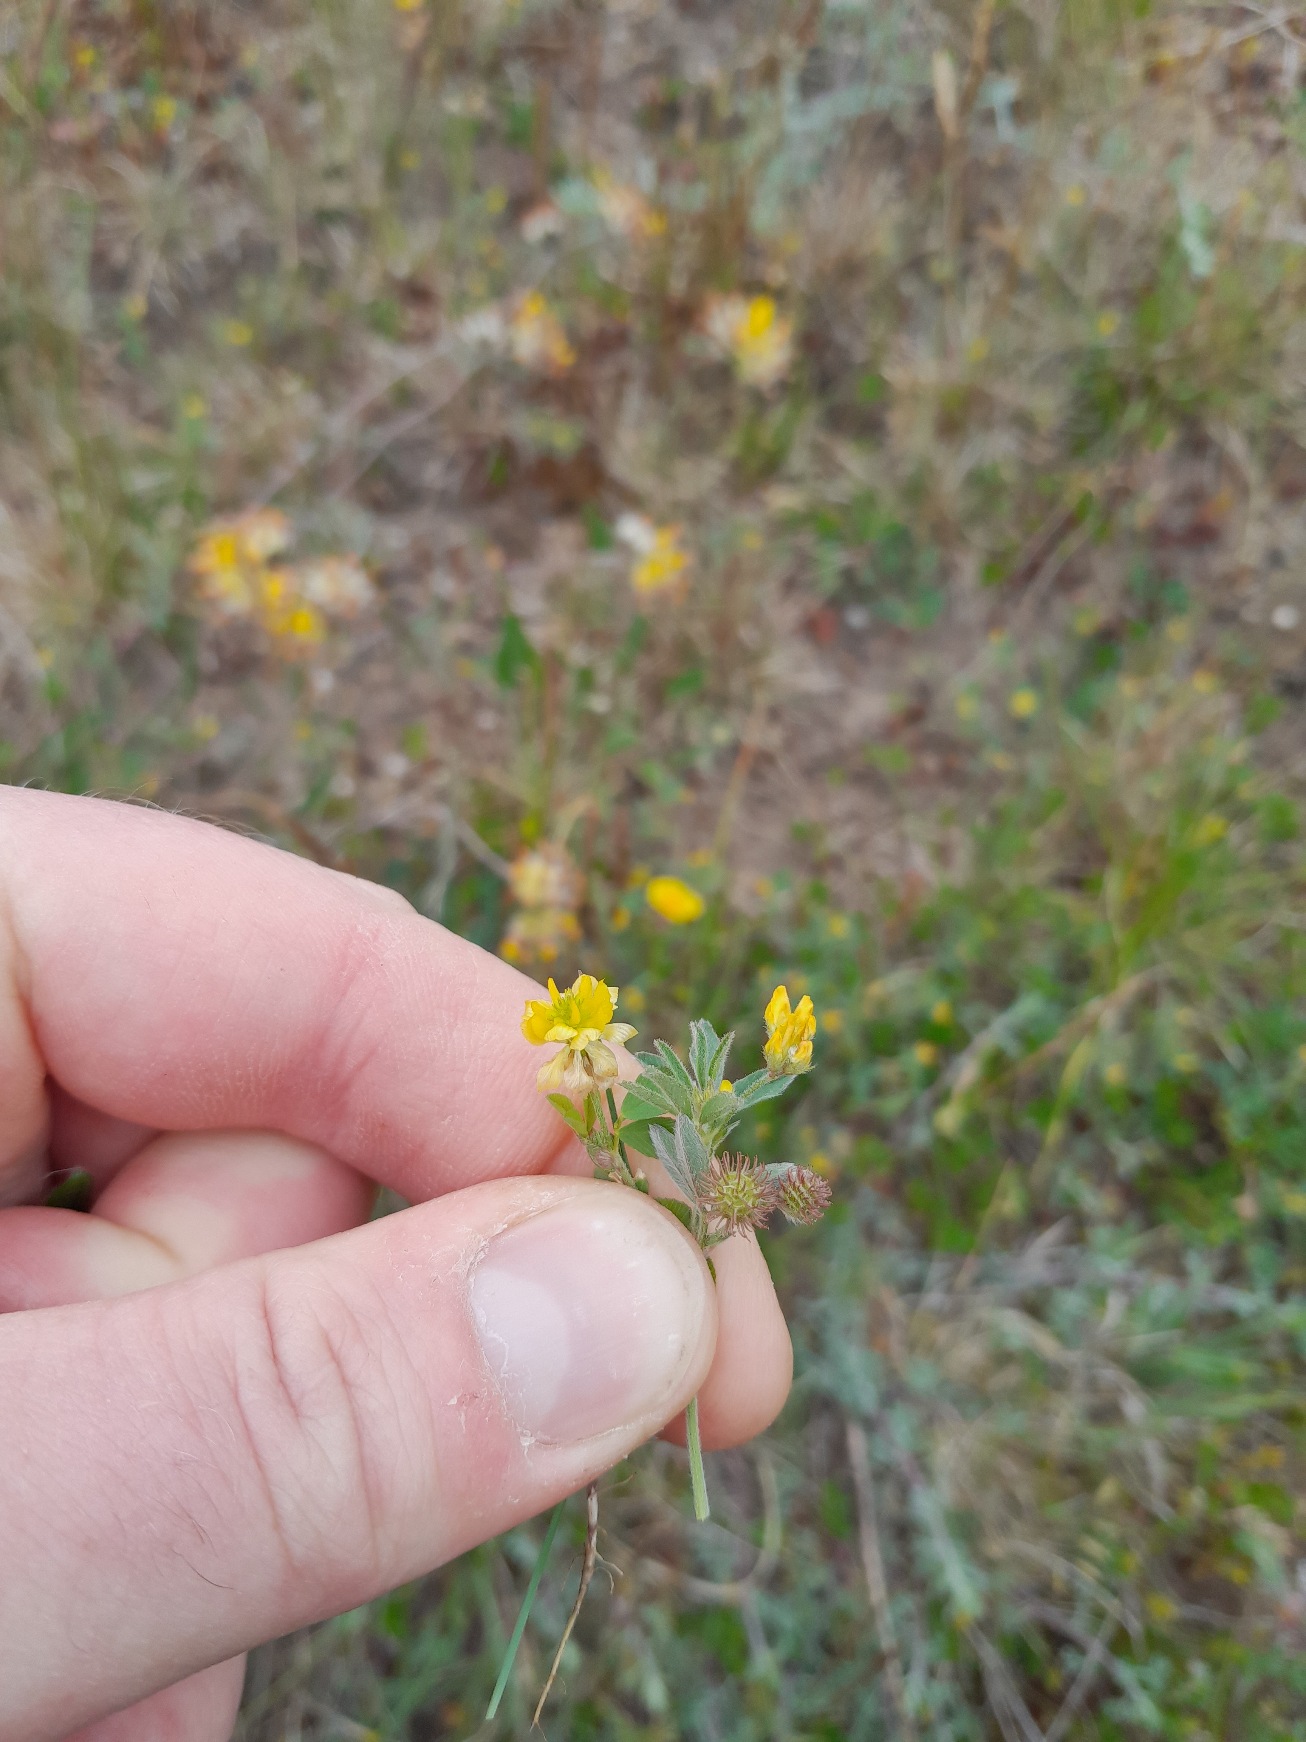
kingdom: Plantae
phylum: Tracheophyta
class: Magnoliopsida
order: Fabales
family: Fabaceae
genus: Medicago
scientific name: Medicago minima
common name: Liden sneglebælg
